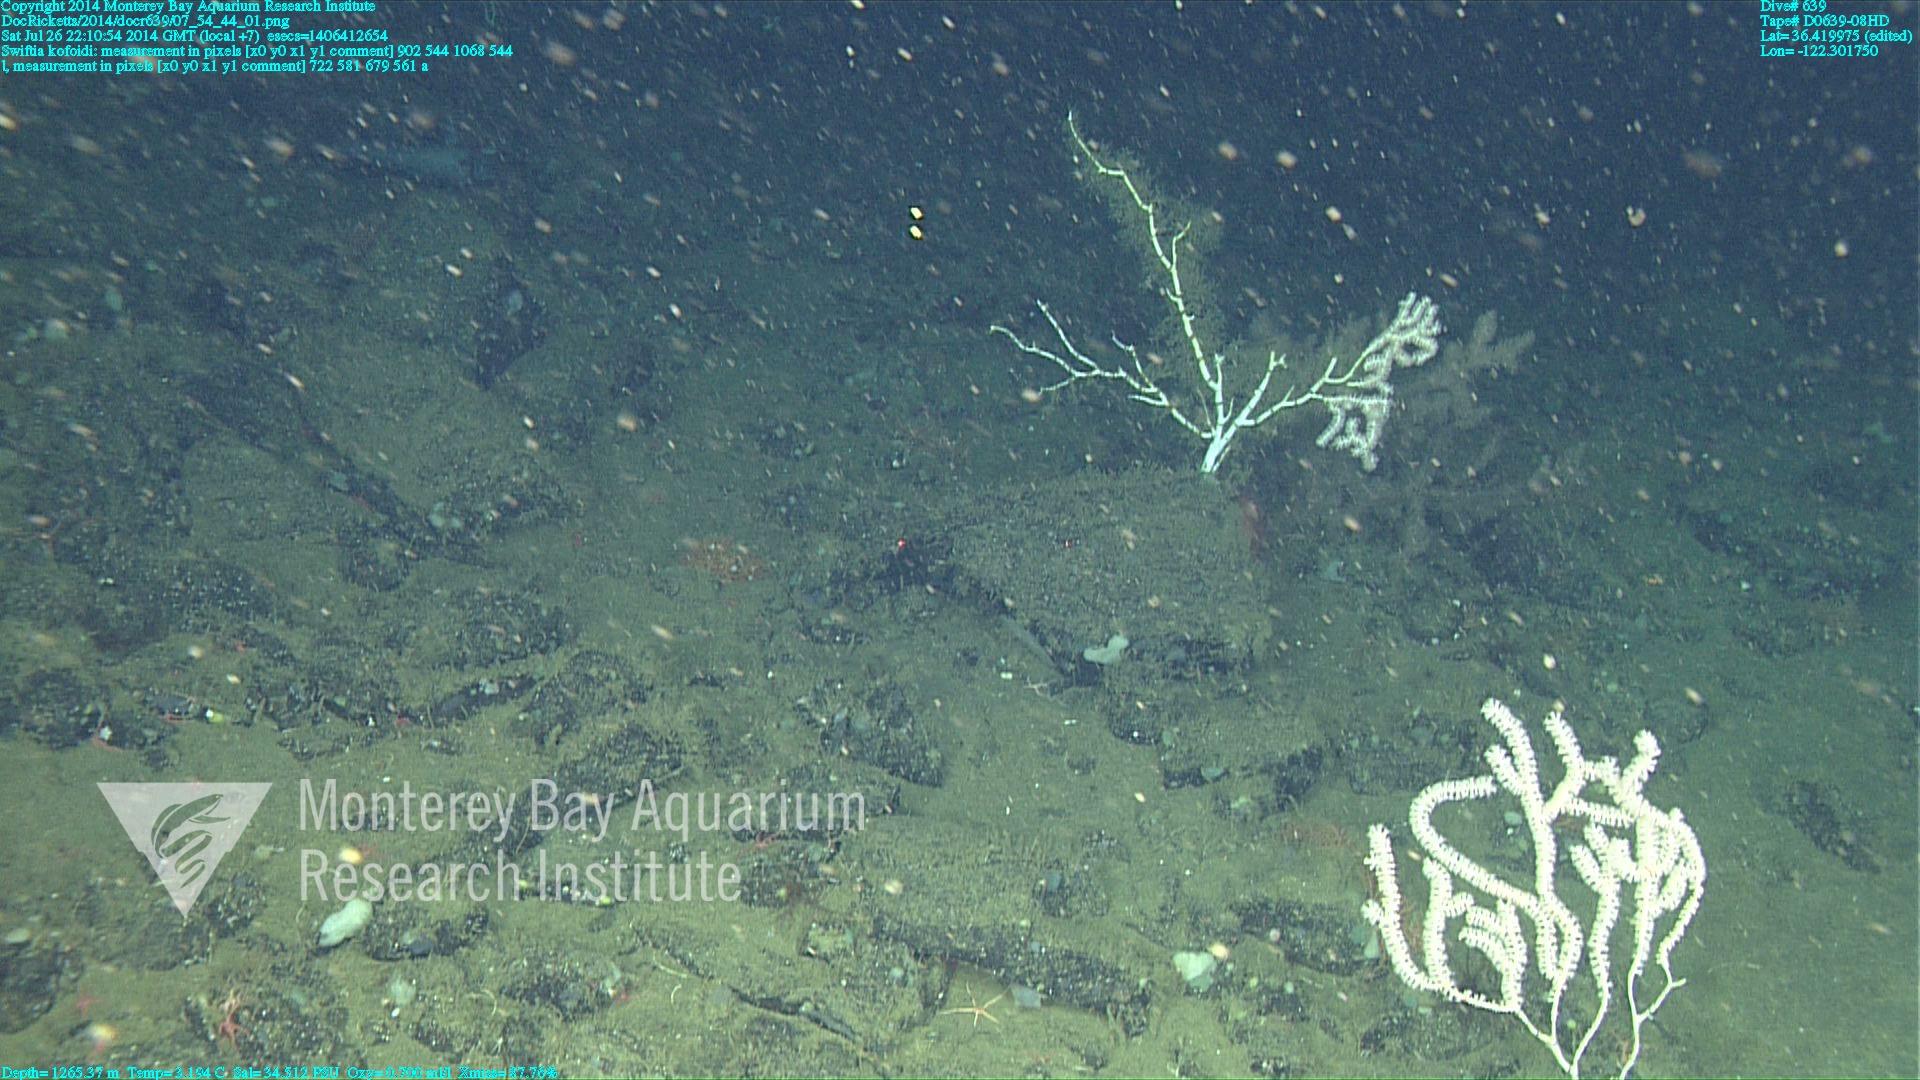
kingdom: Animalia
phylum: Cnidaria
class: Anthozoa
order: Malacalcyonacea
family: Gorgoniidae
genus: Callistephanus
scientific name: Callistephanus kofoidi
